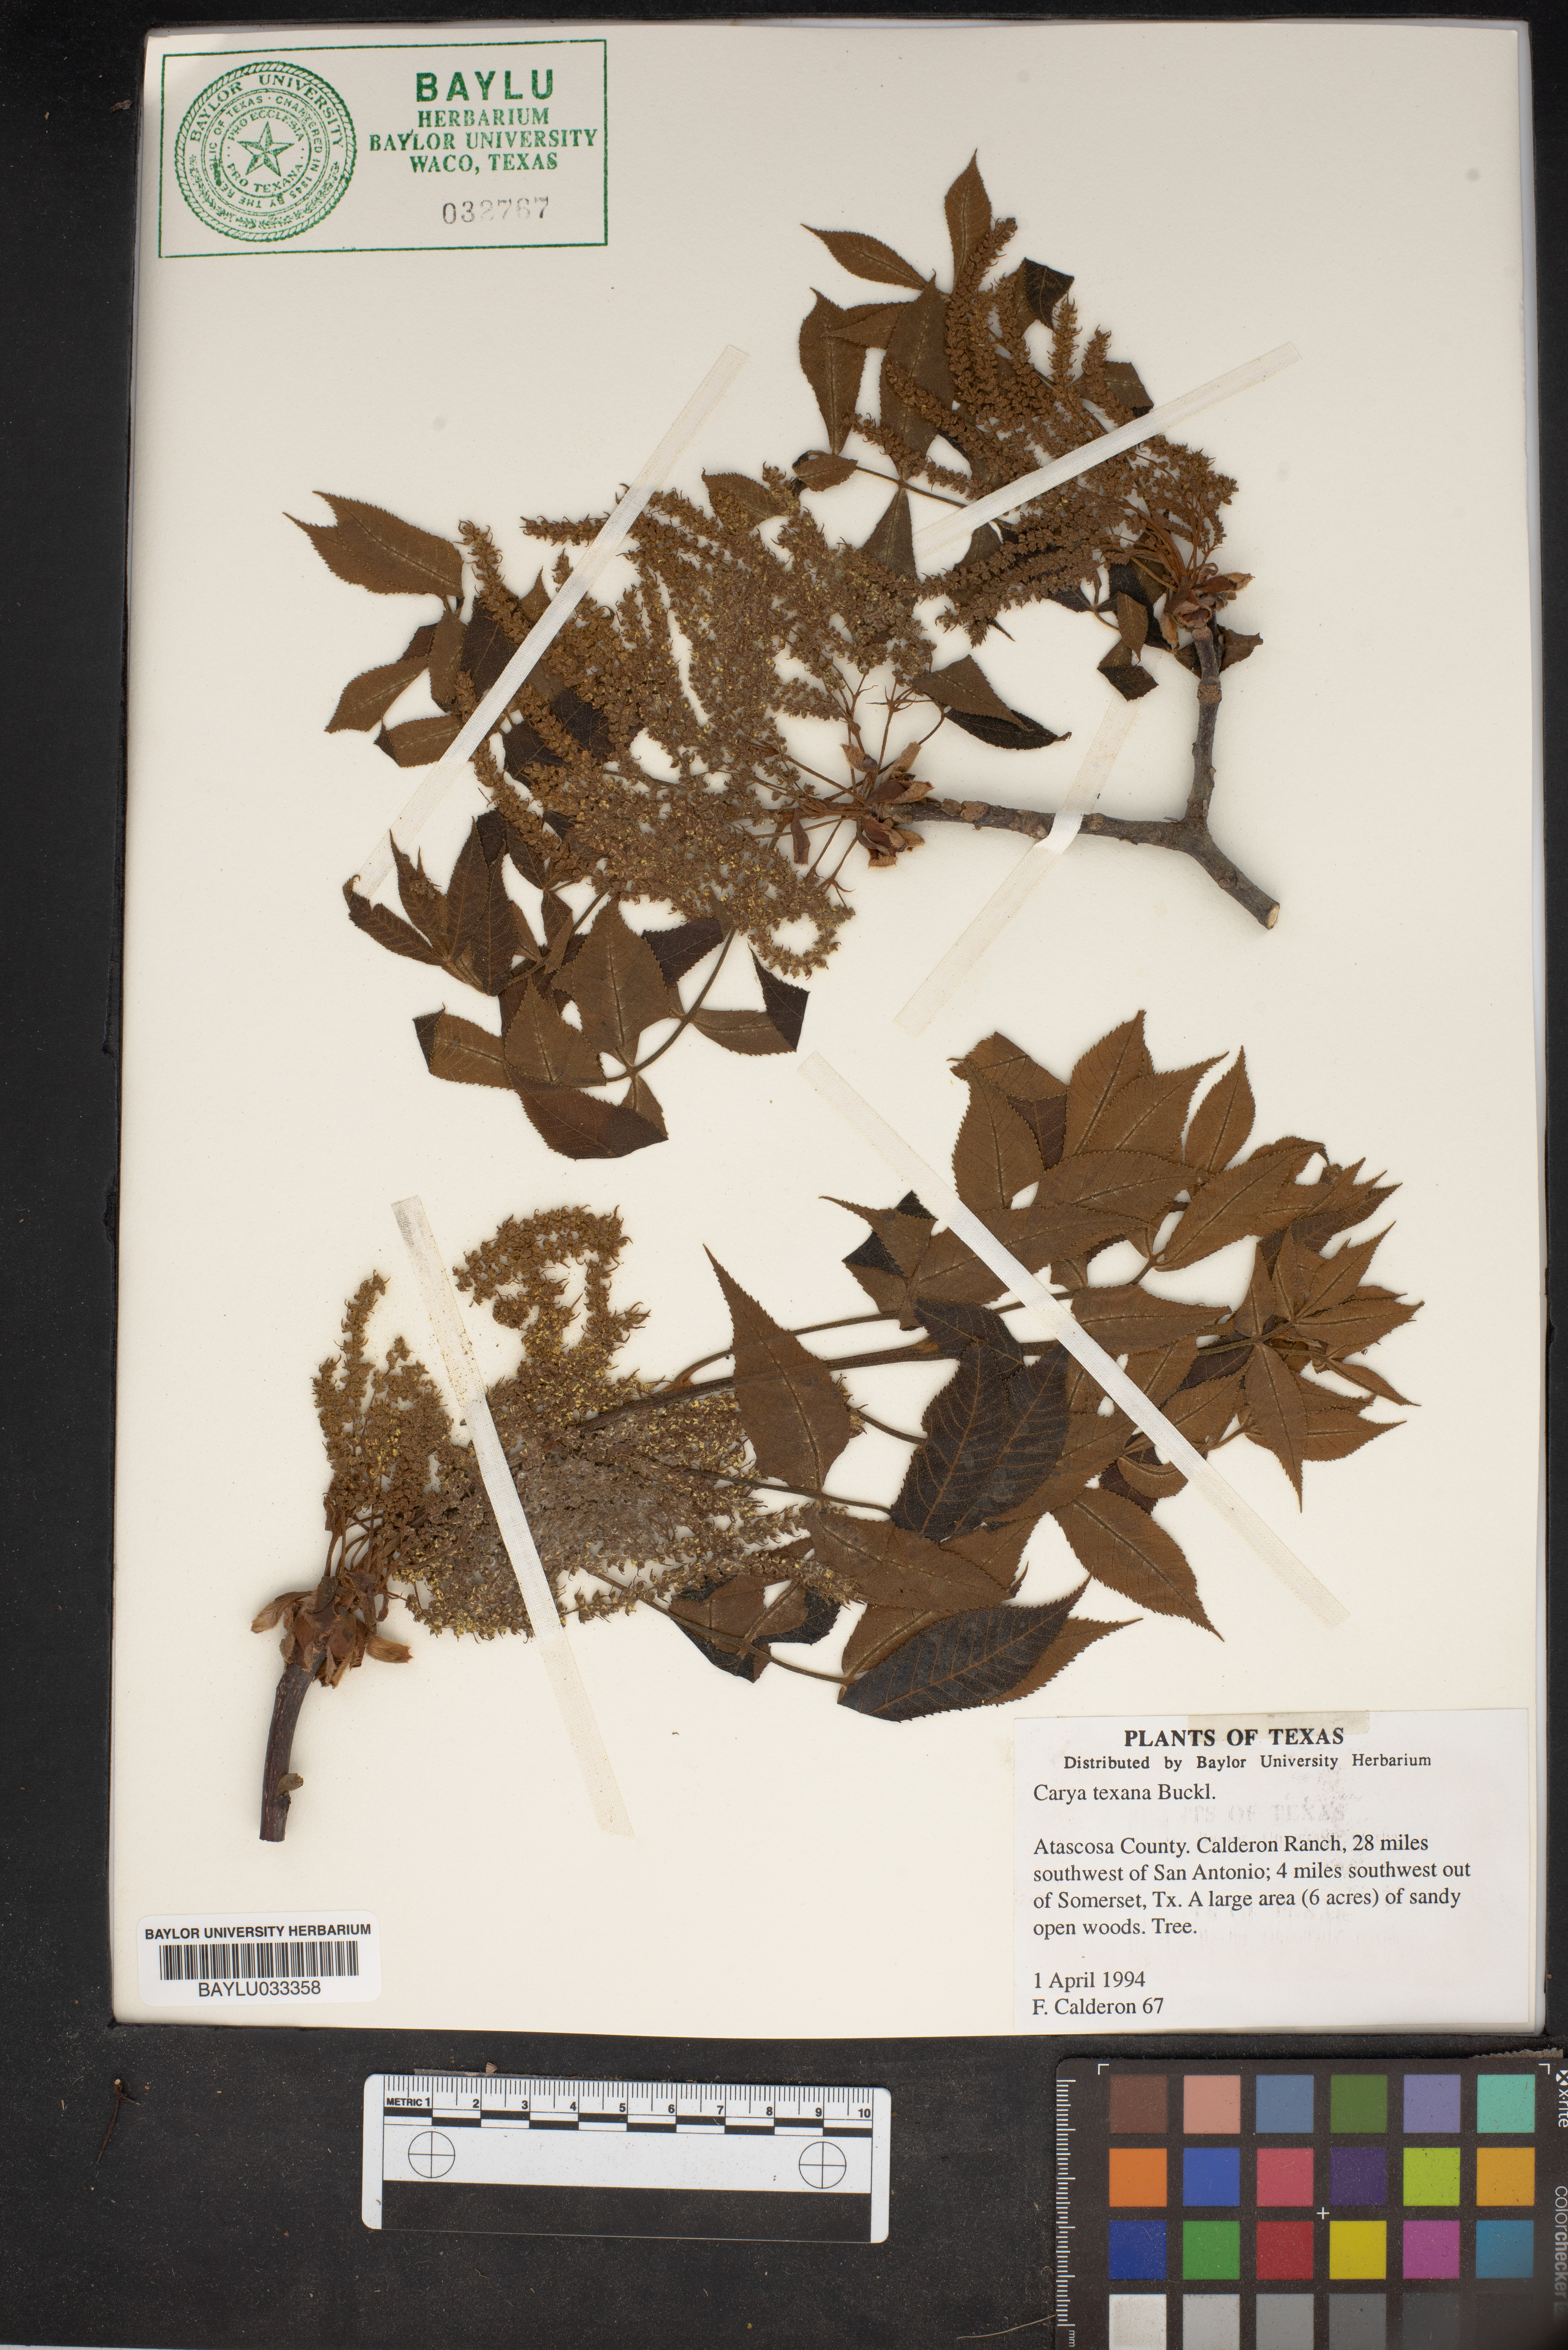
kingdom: Plantae
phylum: Tracheophyta
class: Magnoliopsida
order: Fagales
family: Juglandaceae
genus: Carya
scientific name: Carya texana
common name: Black hickory
